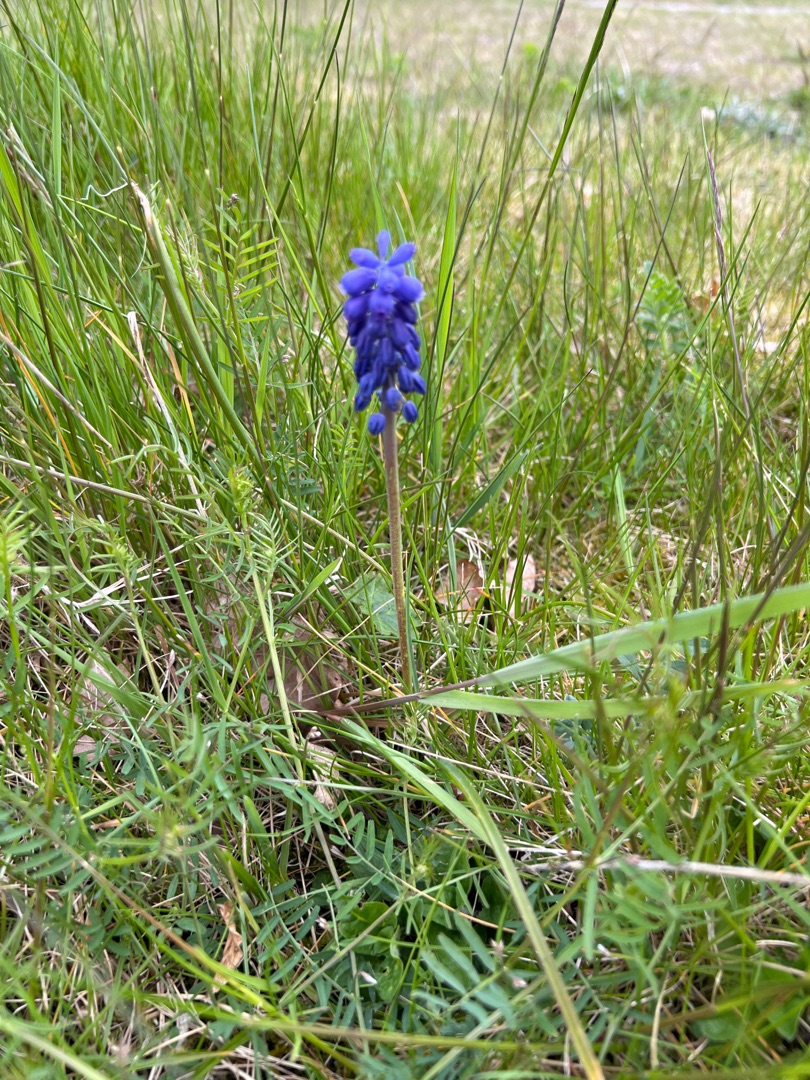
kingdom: Plantae
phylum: Tracheophyta
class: Liliopsida
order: Asparagales
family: Asparagaceae
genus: Muscari
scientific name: Muscari
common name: Perlehyacintslægten
